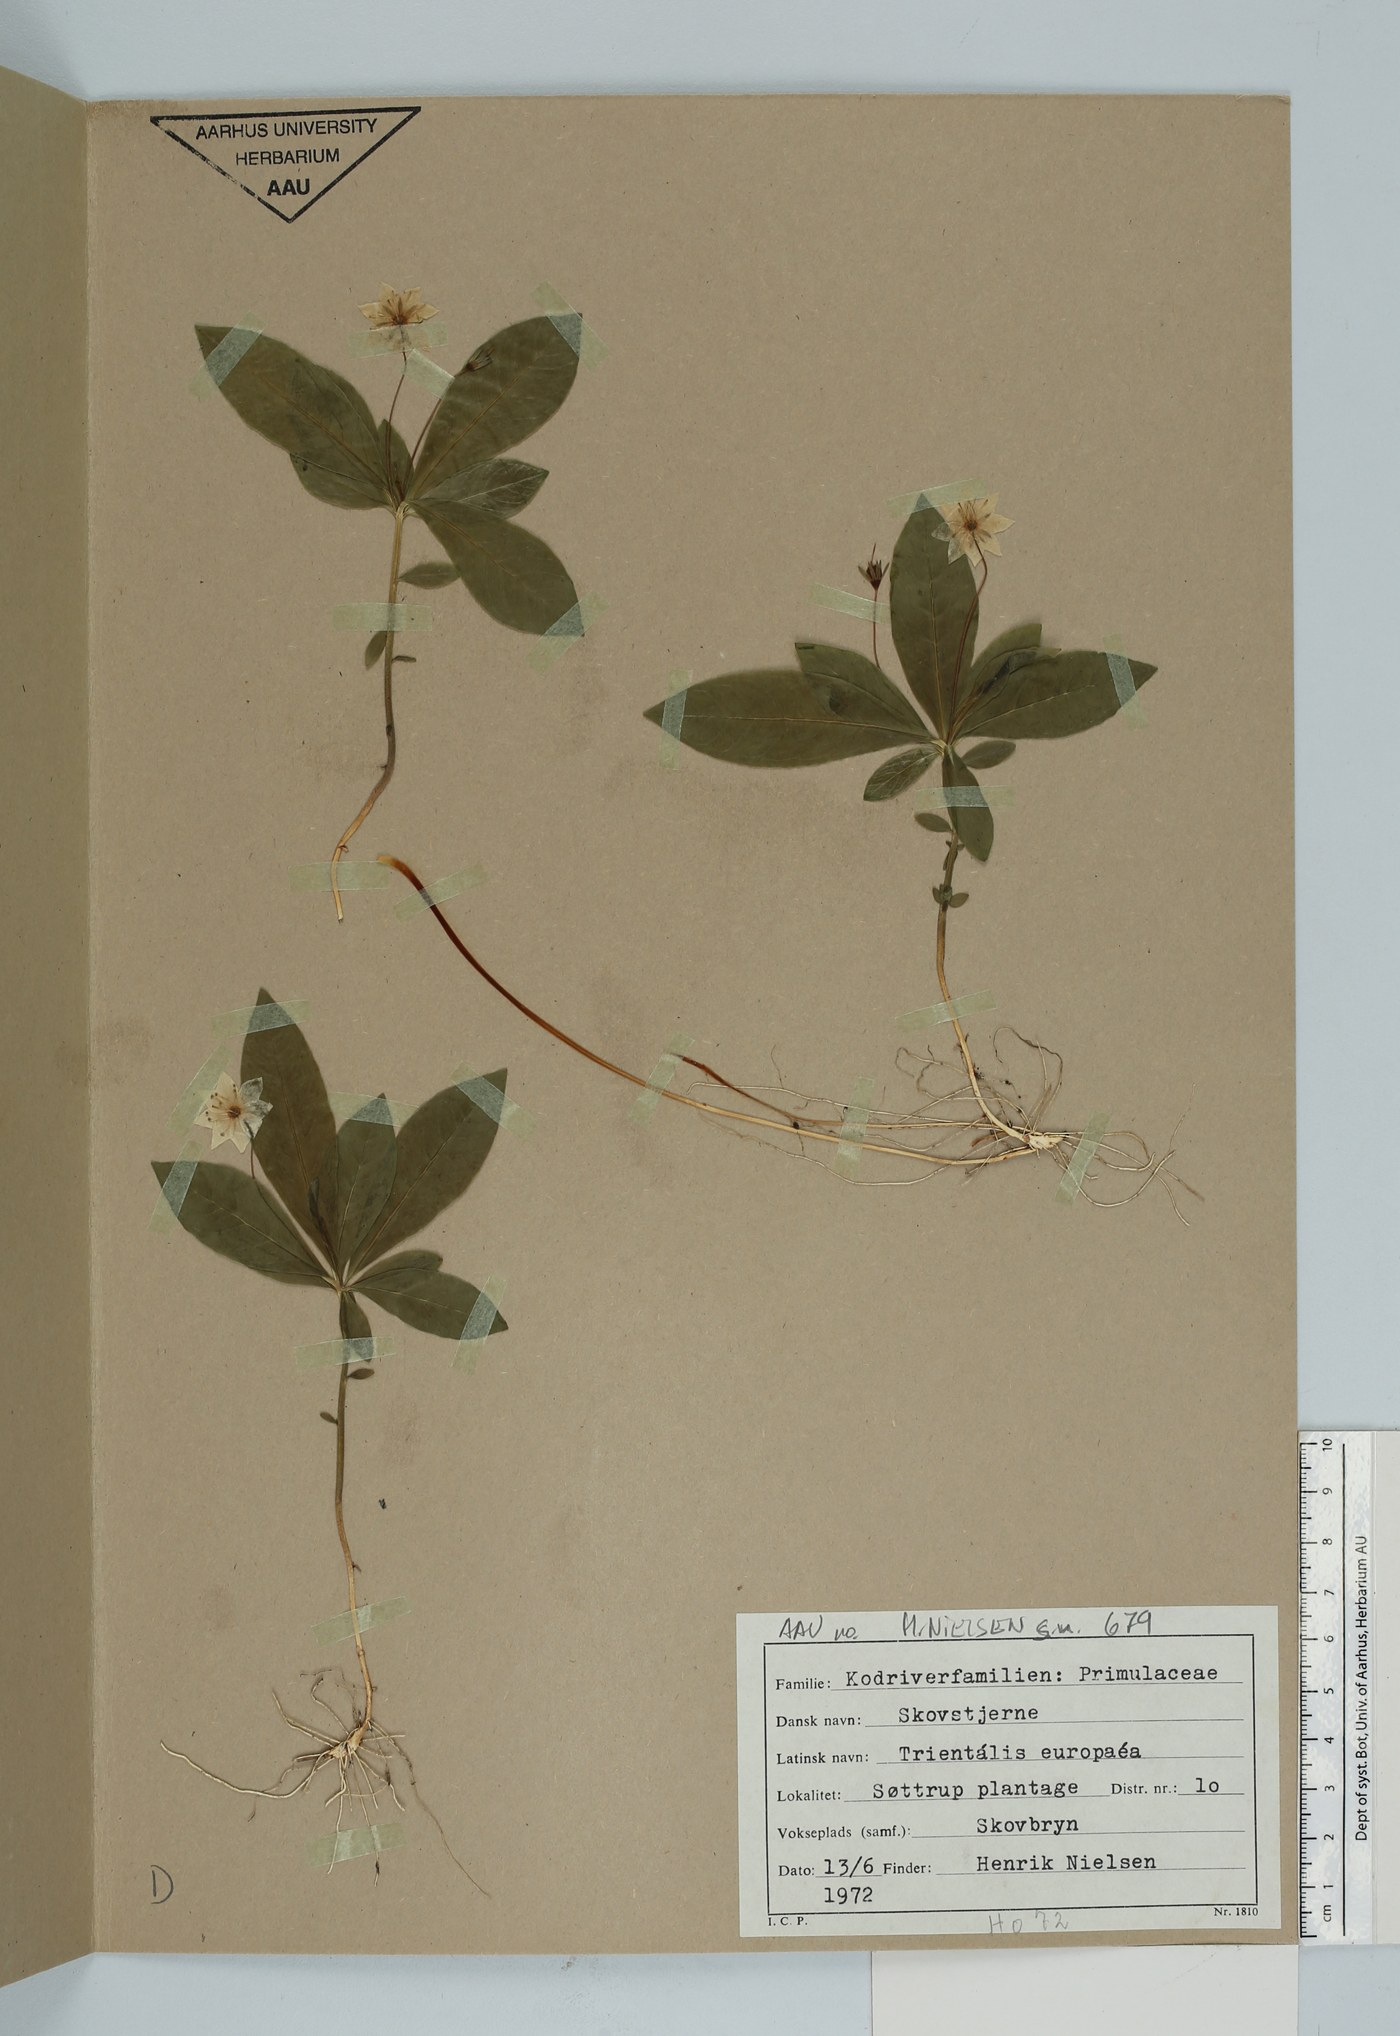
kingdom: Plantae
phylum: Tracheophyta
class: Magnoliopsida
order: Ericales
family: Primulaceae
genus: Lysimachia
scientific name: Lysimachia europaea
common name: Arctic starflower
